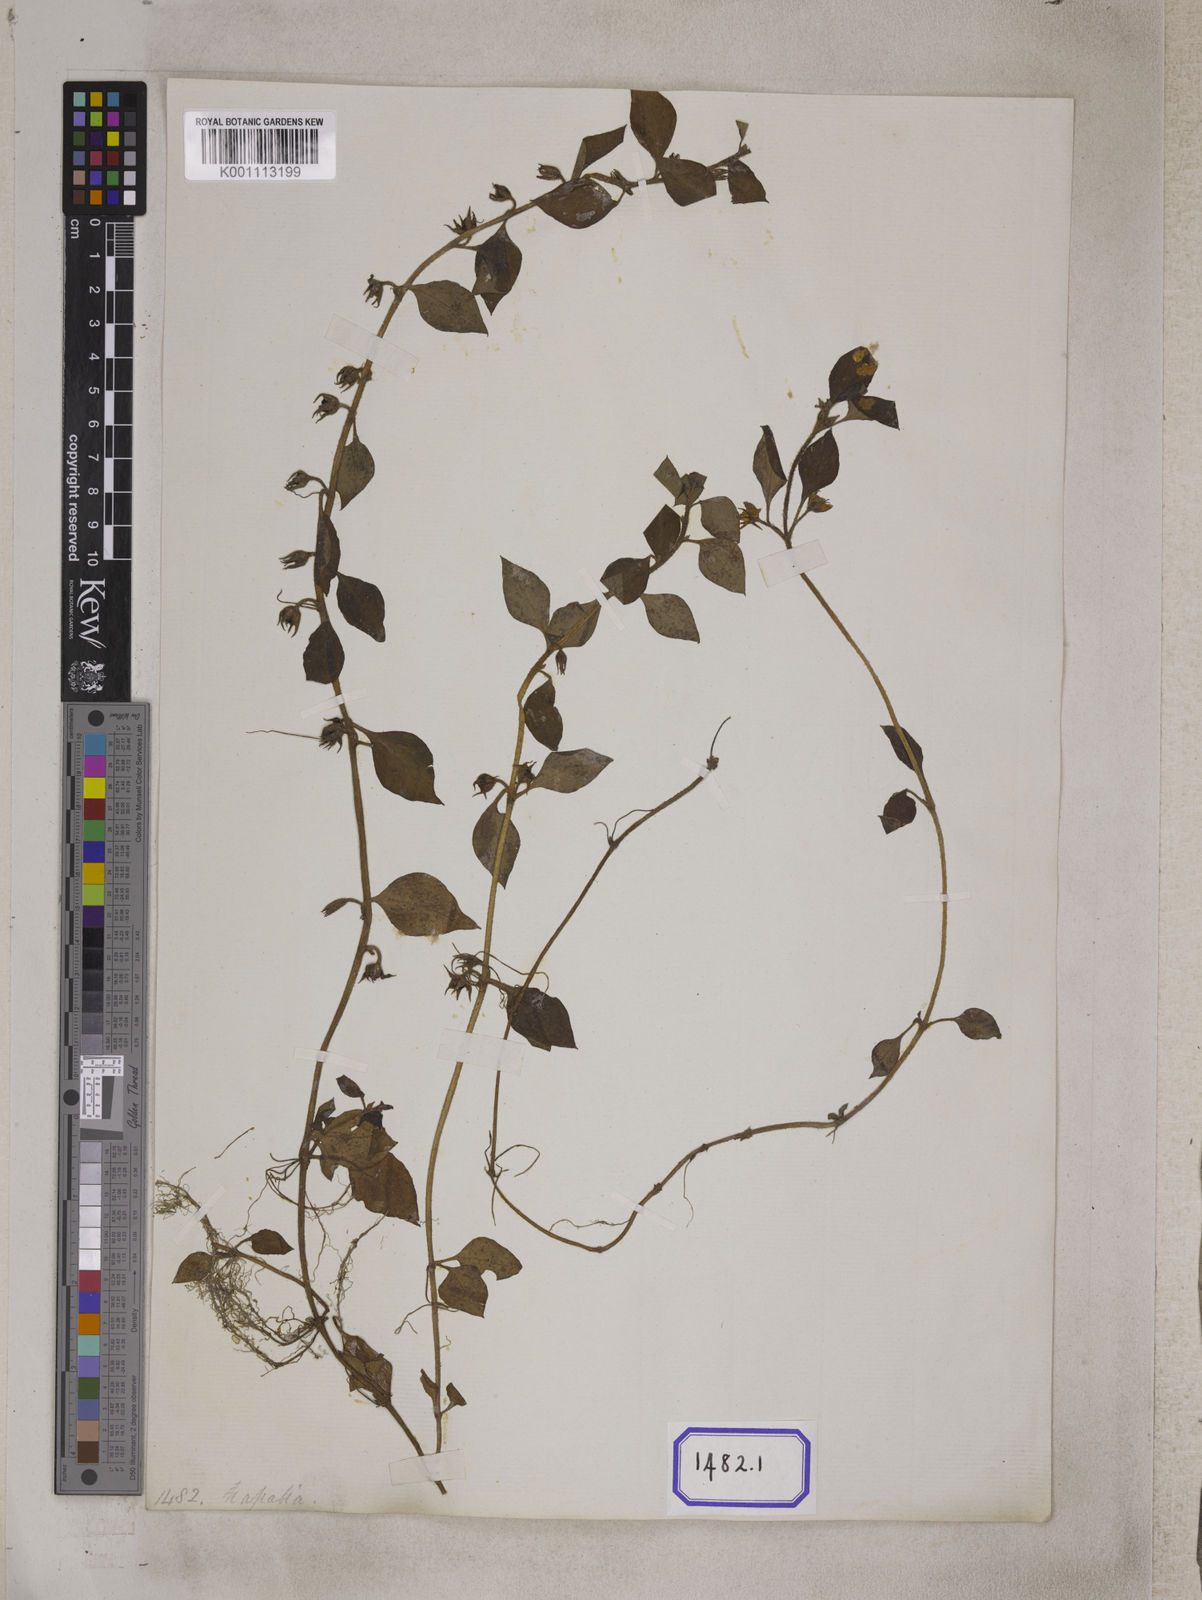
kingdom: Plantae
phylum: Tracheophyta
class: Magnoliopsida
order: Ericales
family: Primulaceae
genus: Lysimachia
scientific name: Lysimachia japonica
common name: Japanese yellow loosestrife
